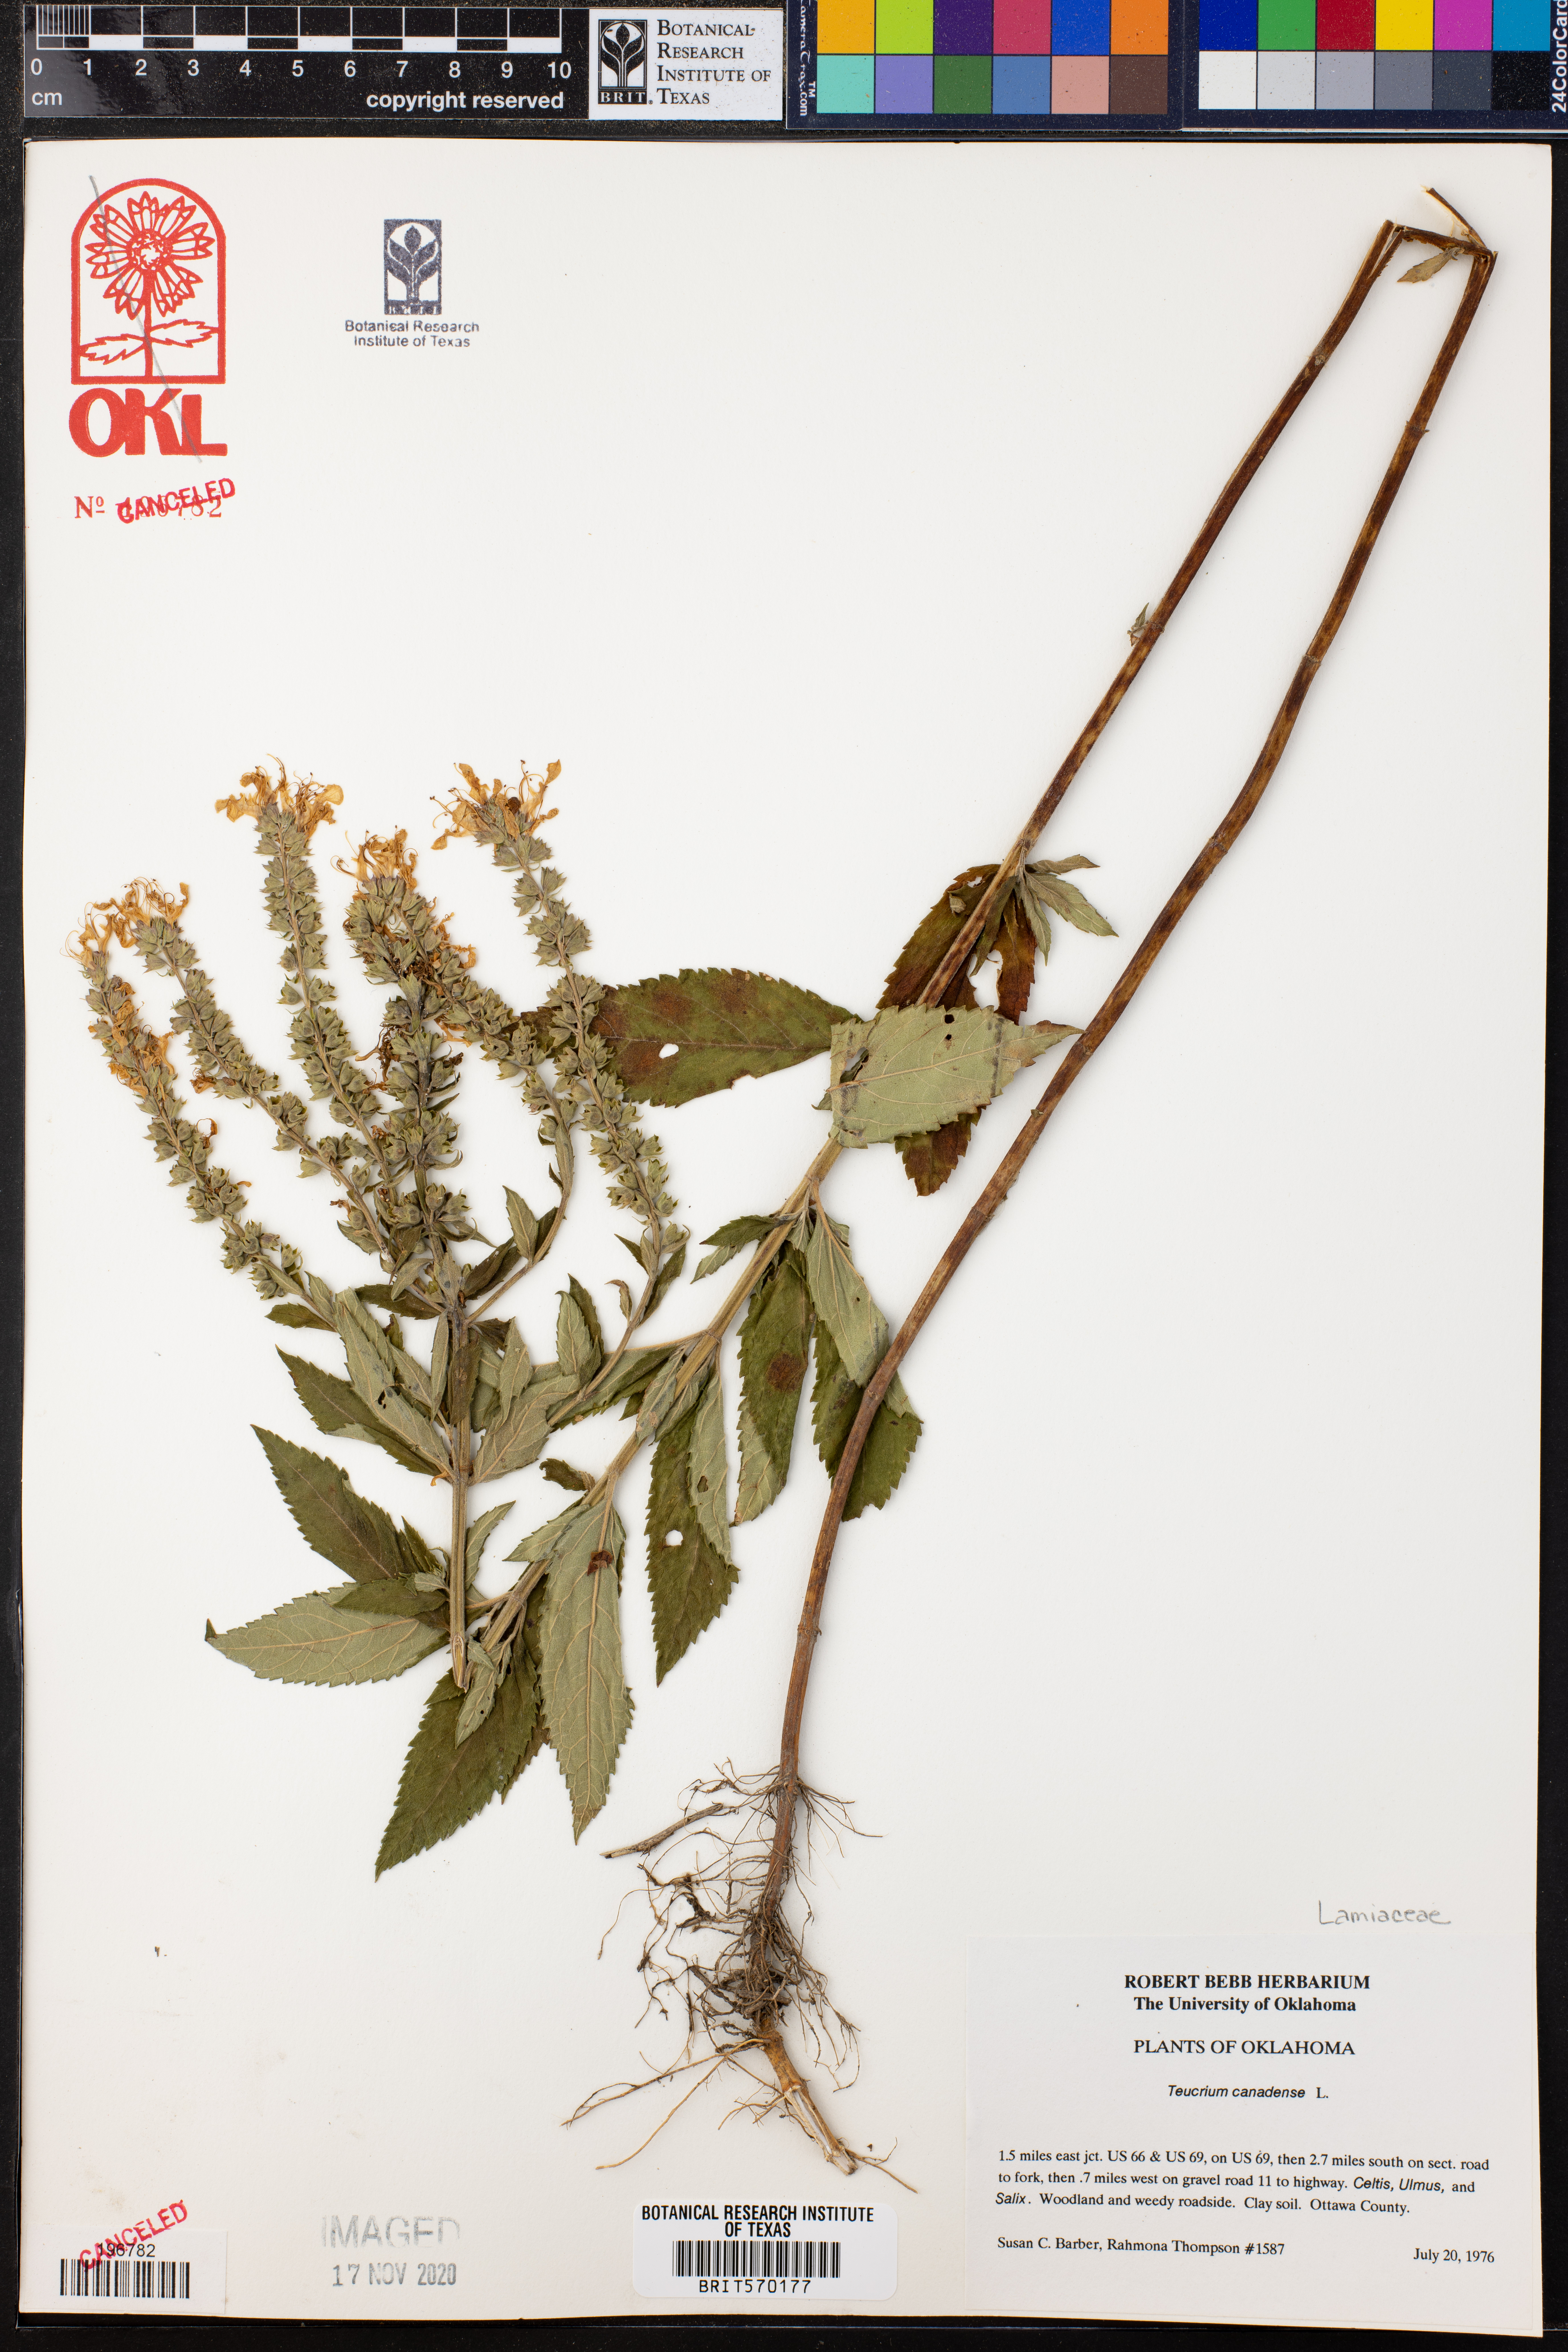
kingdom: Plantae
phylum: Tracheophyta
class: Magnoliopsida
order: Lamiales
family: Lamiaceae
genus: Teucrium
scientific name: Teucrium canadense
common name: American germander
